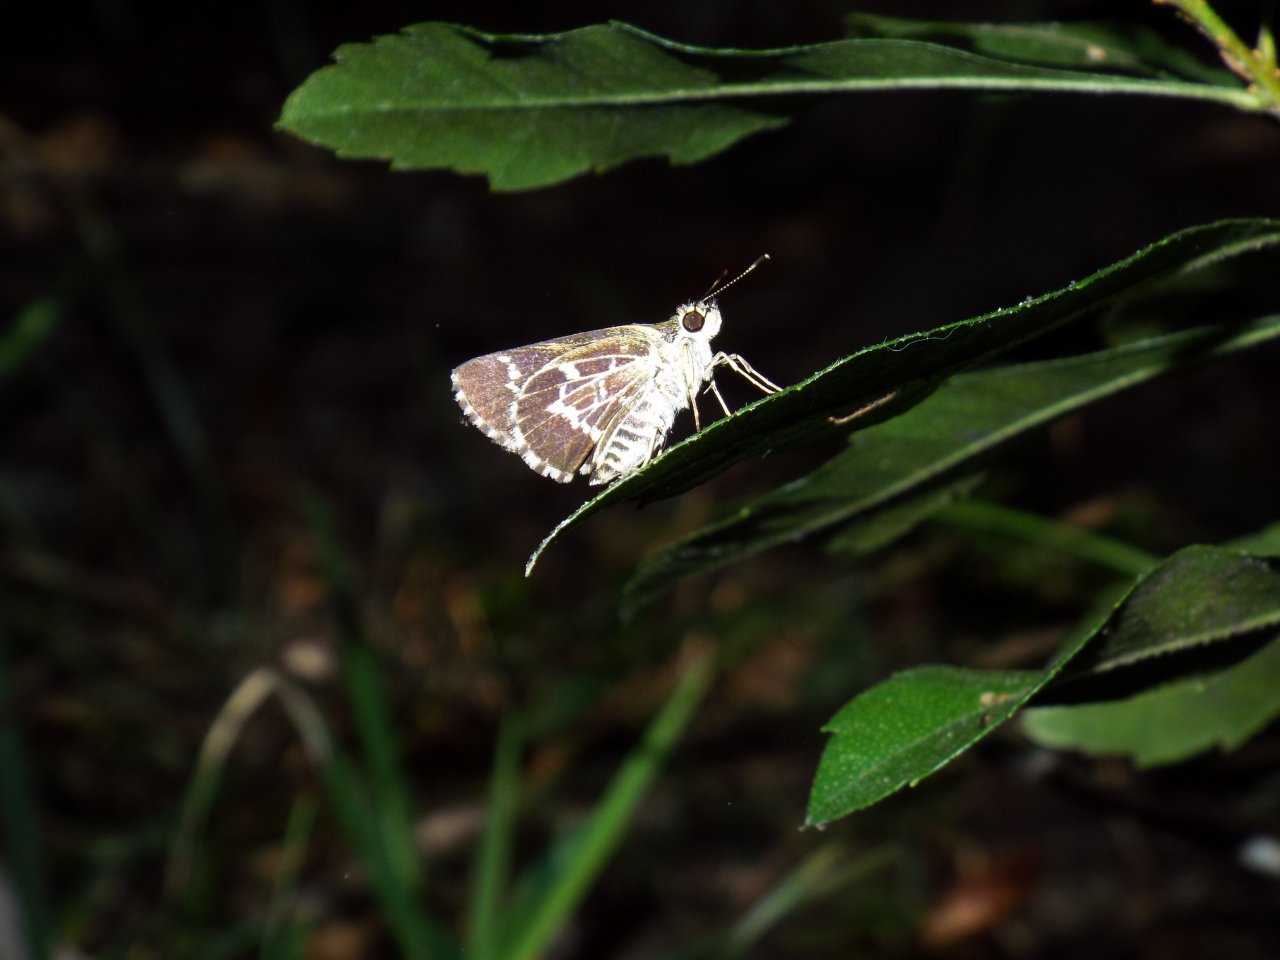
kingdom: Animalia
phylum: Arthropoda
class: Insecta
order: Lepidoptera
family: Hesperiidae
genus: Mastor
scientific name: Mastor aesculapius
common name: Lace-winged Roadside-Skipper
